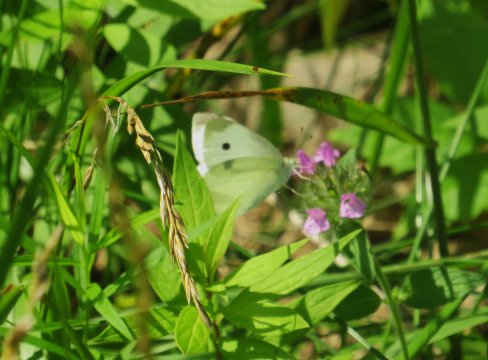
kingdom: Animalia
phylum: Arthropoda
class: Insecta
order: Lepidoptera
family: Pieridae
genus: Pieris
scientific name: Pieris rapae
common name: Cabbage White
